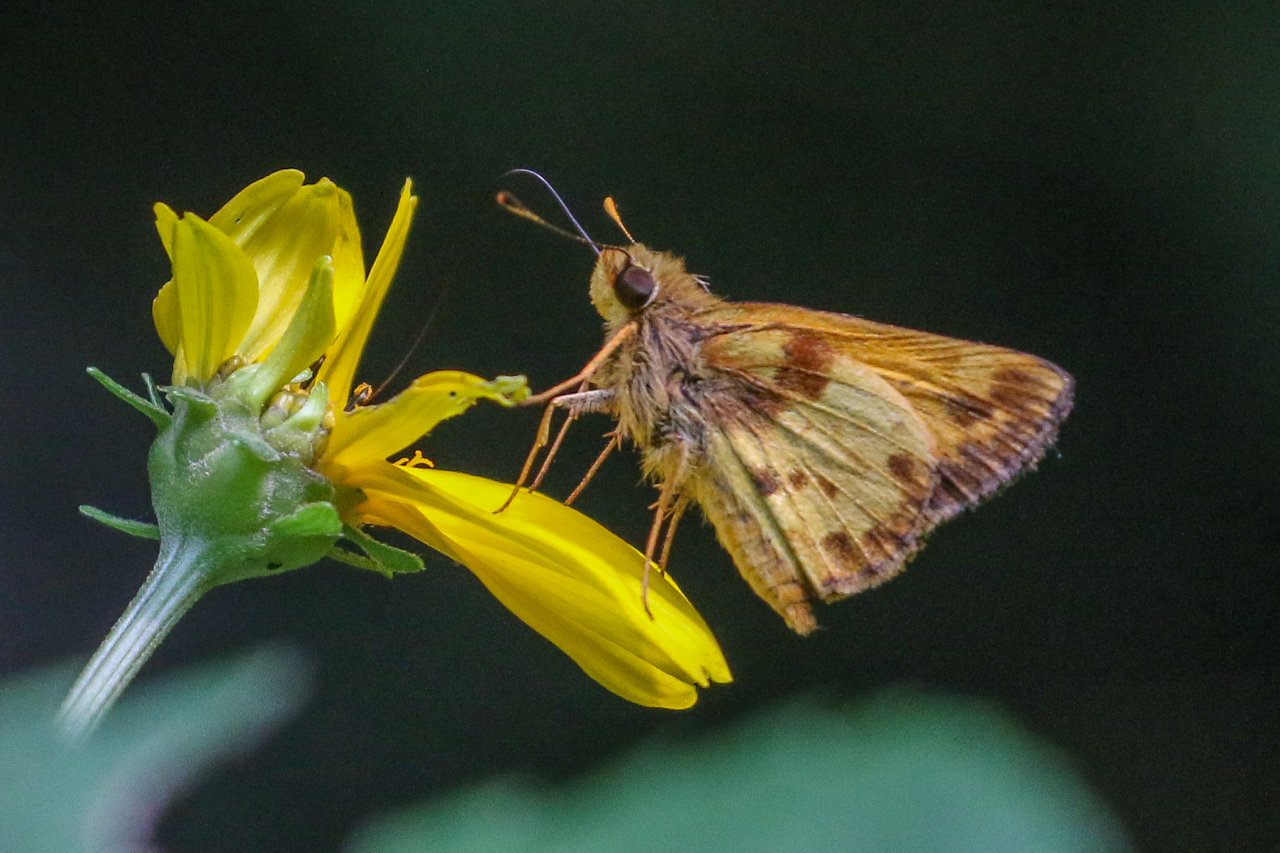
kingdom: Animalia
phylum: Arthropoda
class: Insecta
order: Lepidoptera
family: Hesperiidae
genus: Lon
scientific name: Lon zabulon
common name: Zabulon Skipper
